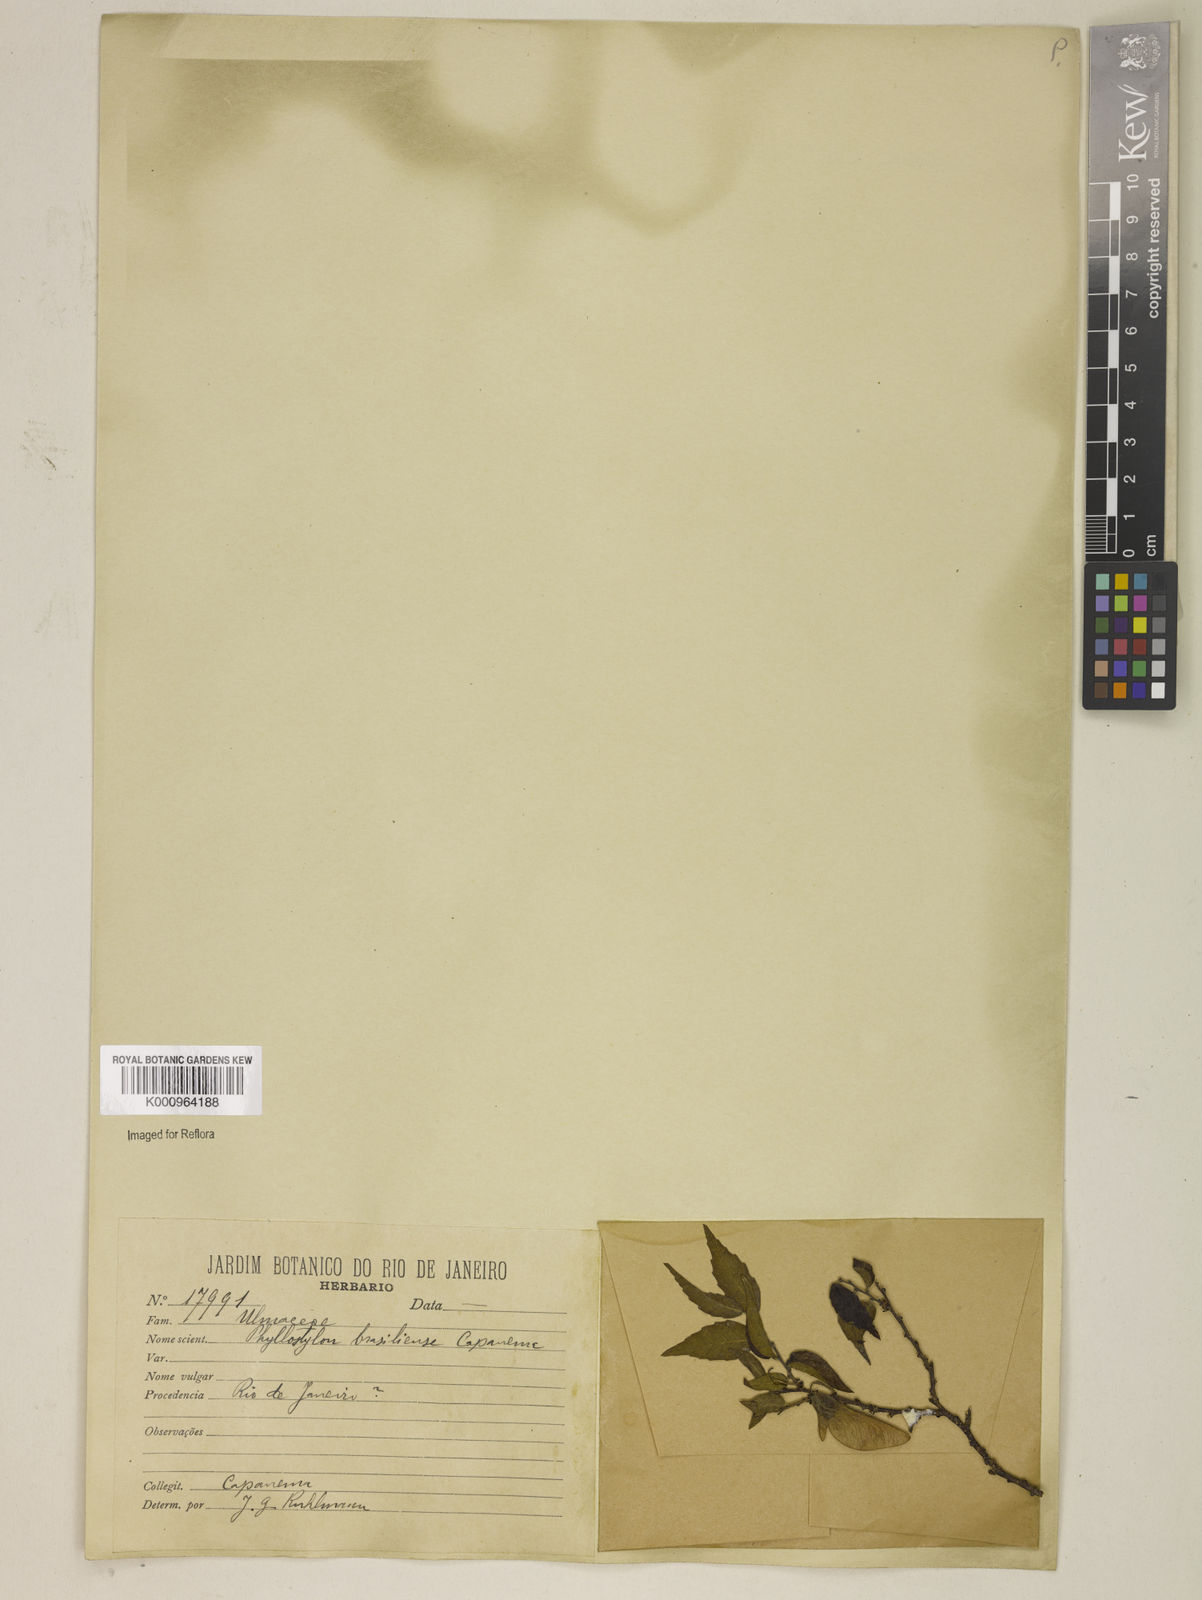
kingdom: Plantae
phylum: Tracheophyta
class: Magnoliopsida
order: Rosales
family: Ulmaceae
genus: Phyllostylon
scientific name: Phyllostylon brasiliensis
